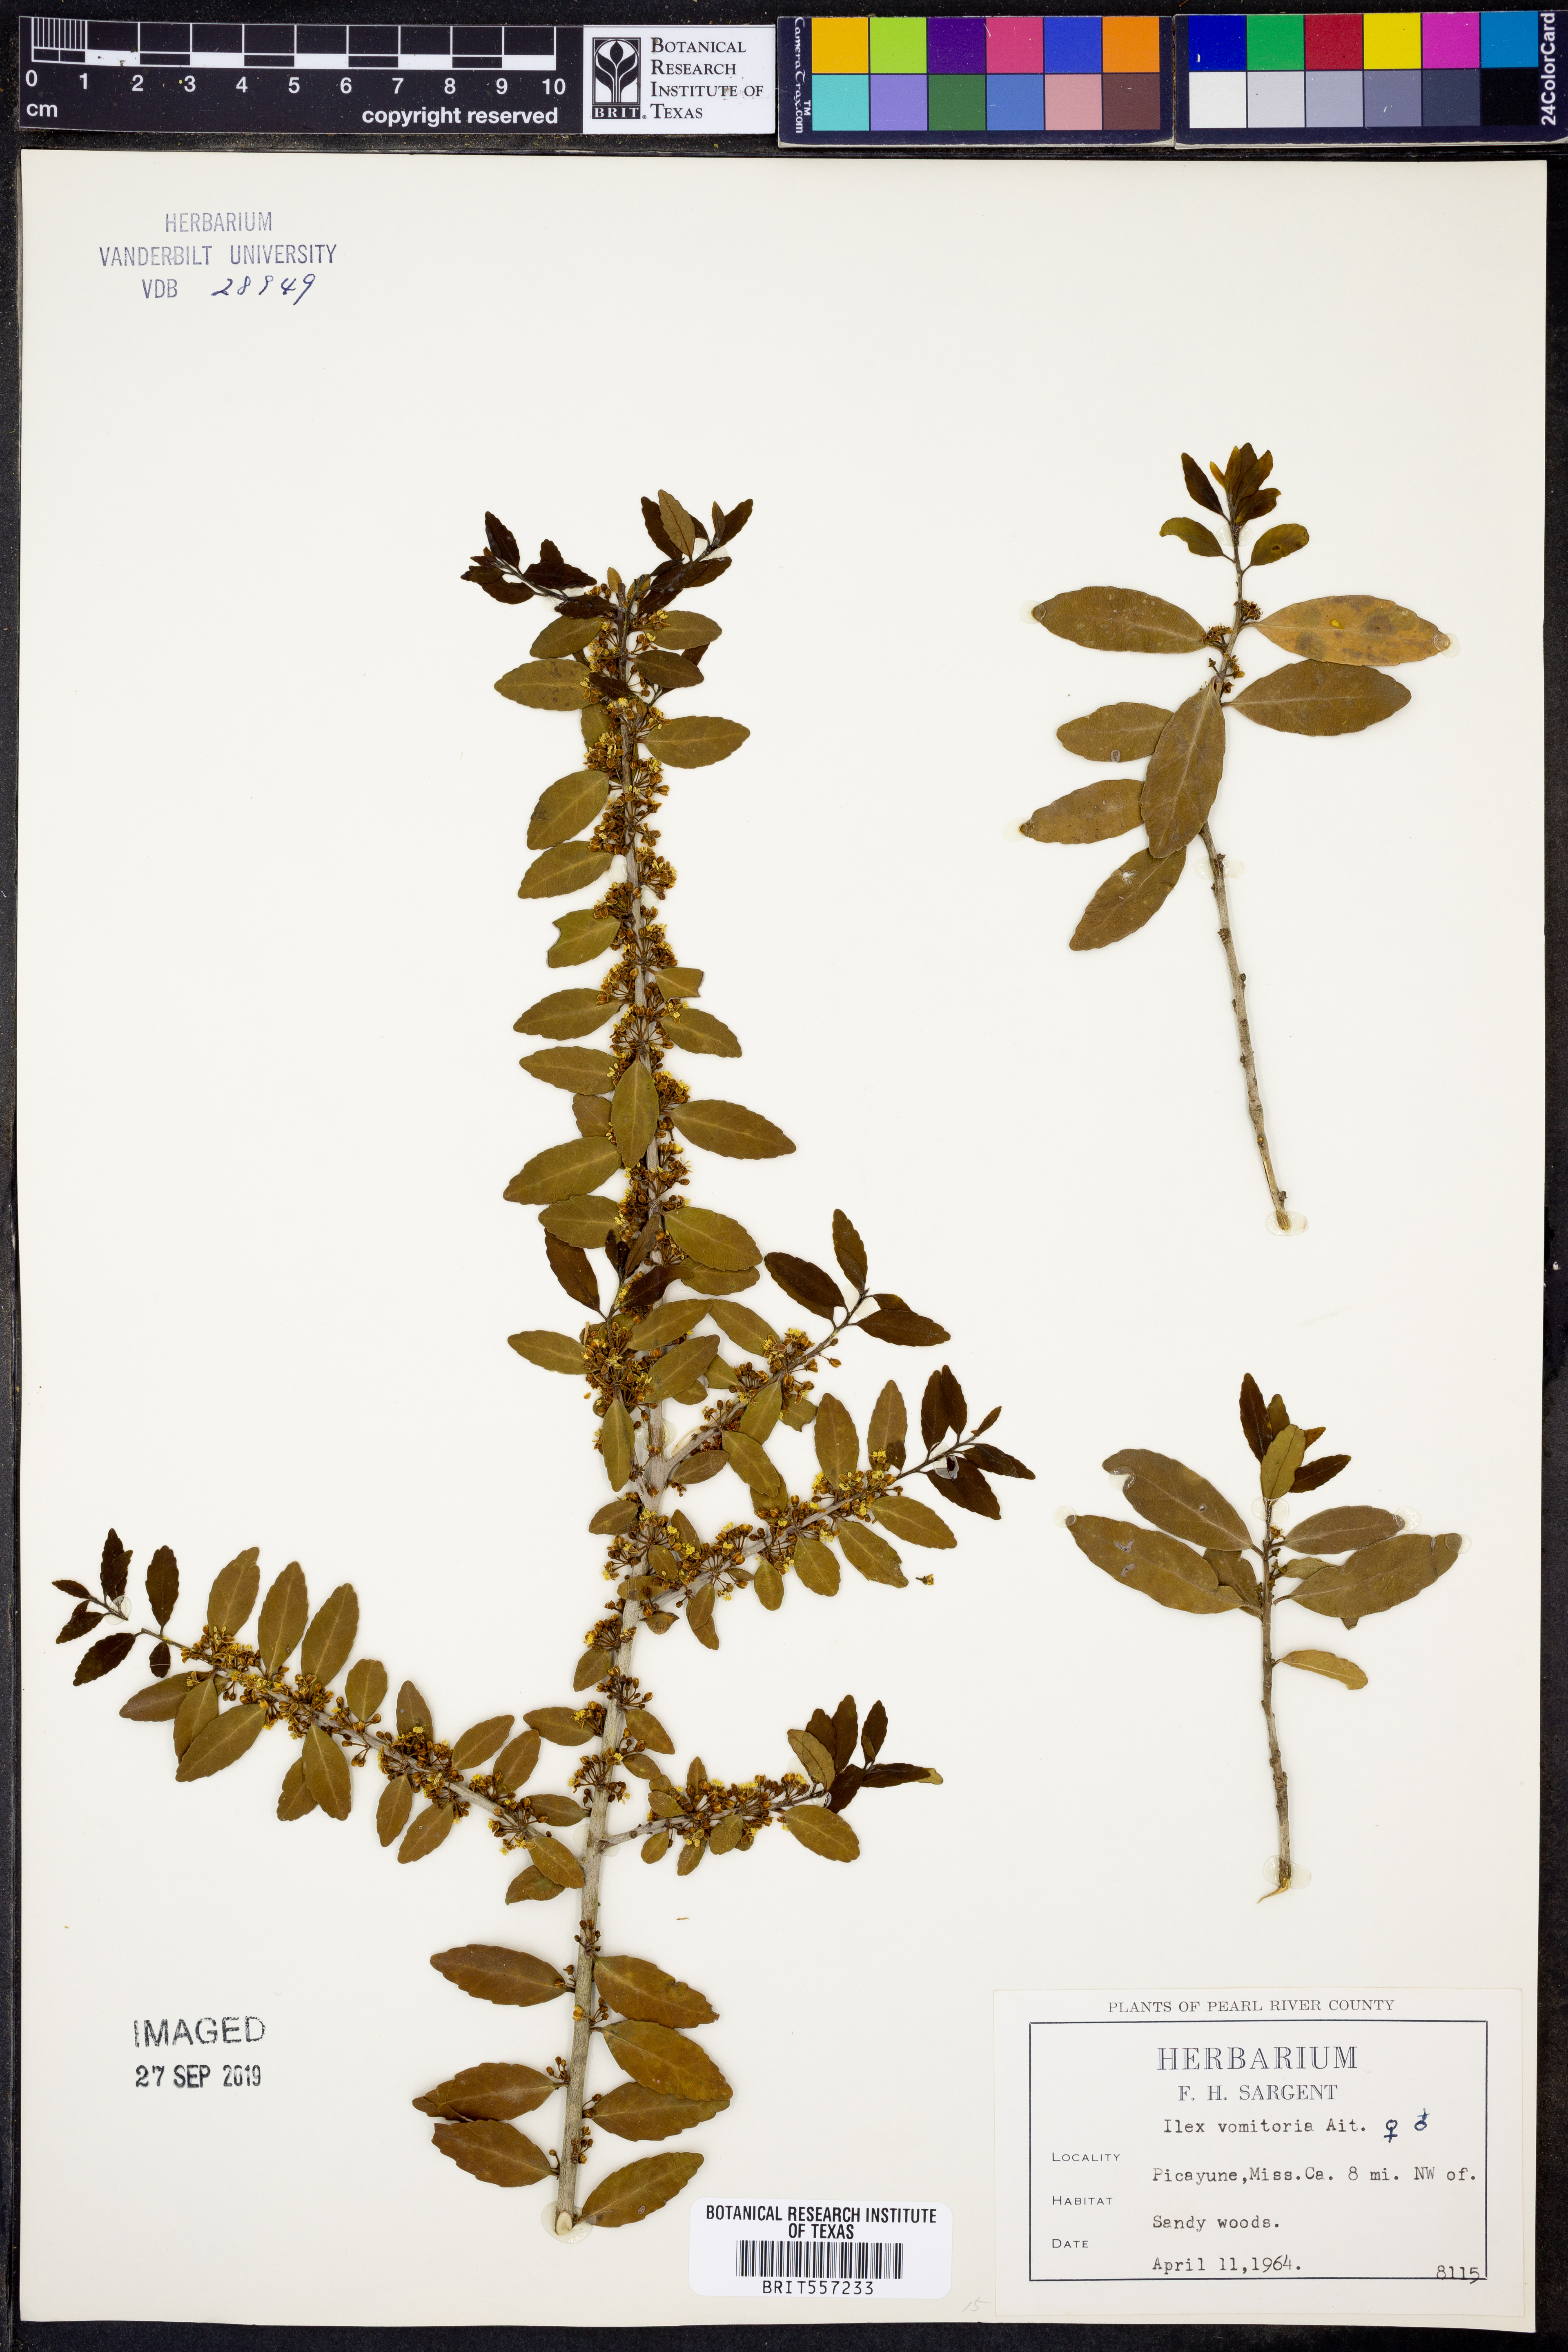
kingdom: Plantae
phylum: Tracheophyta
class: Magnoliopsida
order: Aquifoliales
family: Aquifoliaceae
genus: Ilex
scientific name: Ilex vomitoria
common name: Yaupon holly
